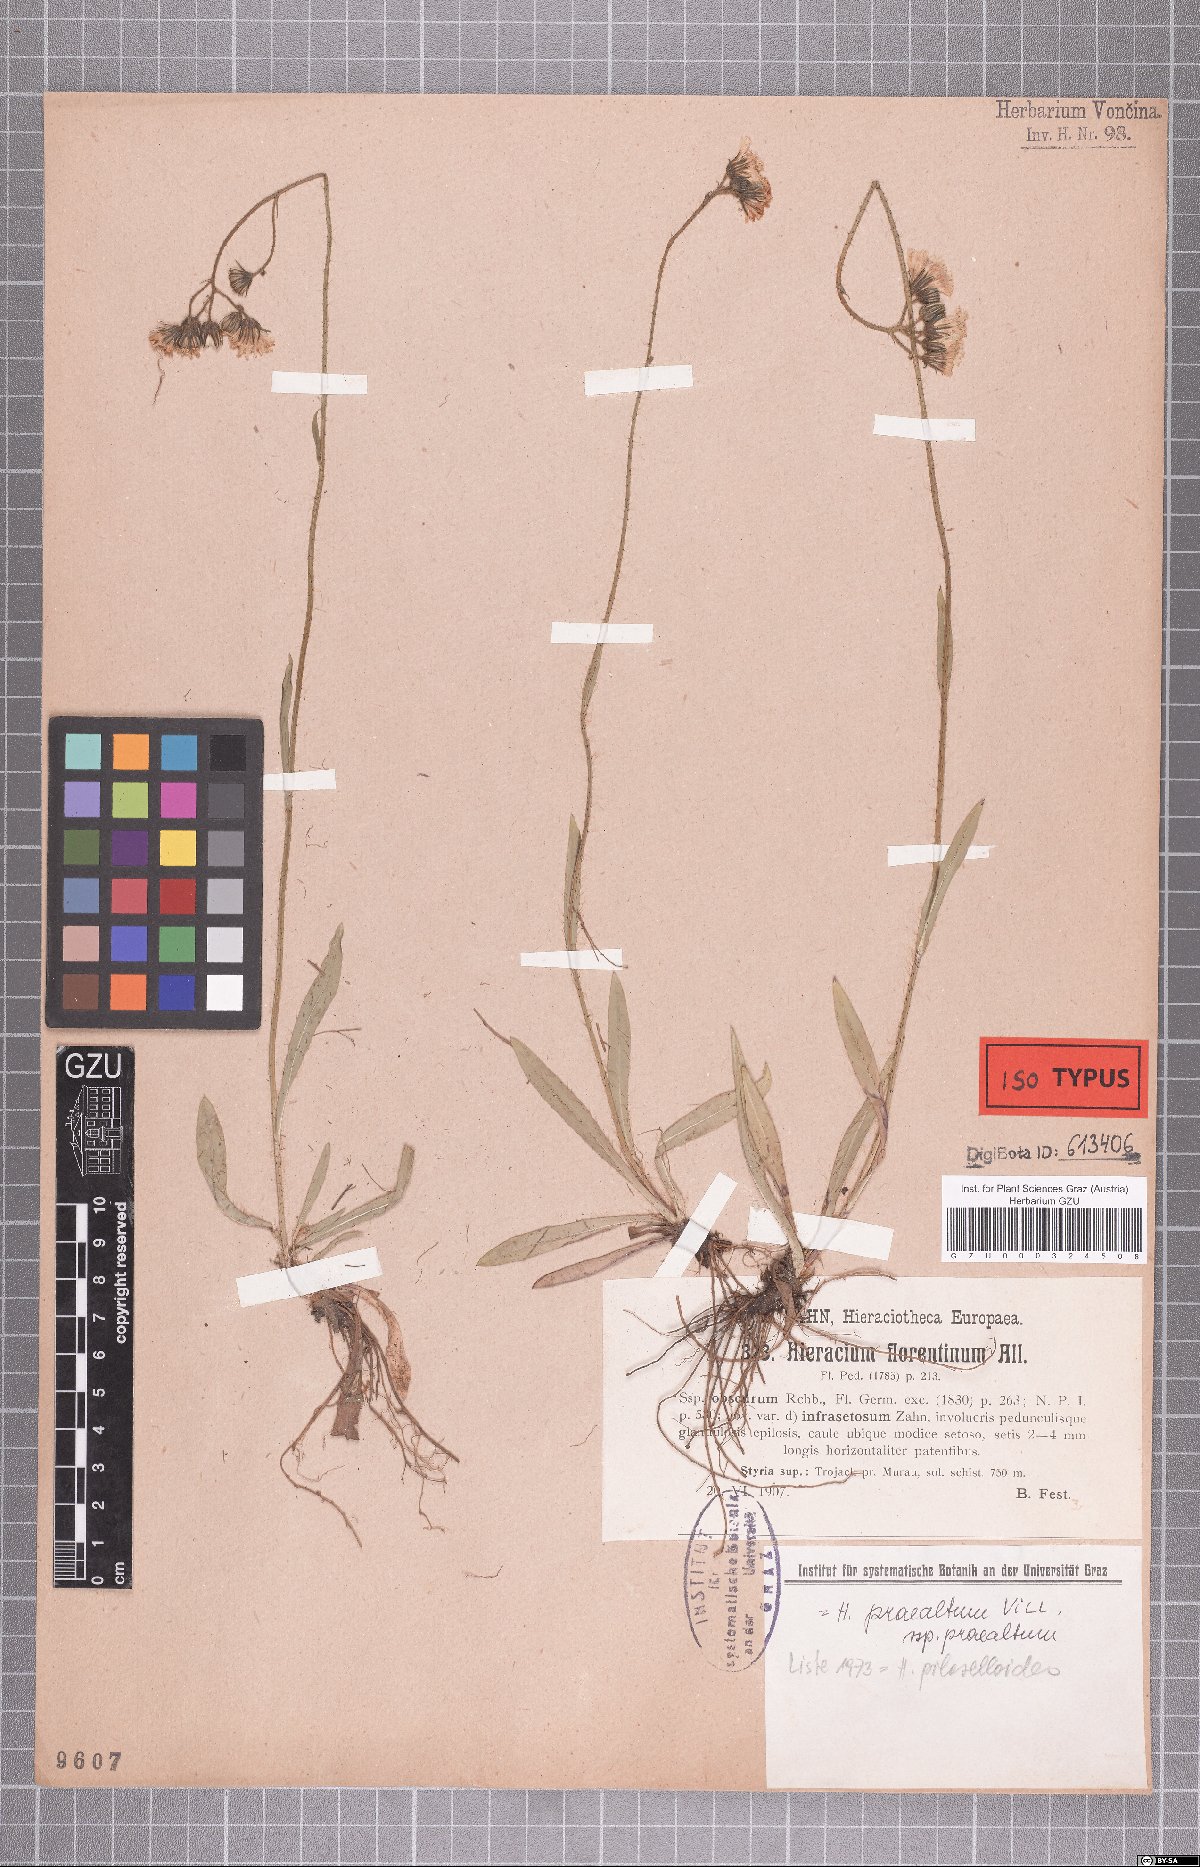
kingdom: Plantae
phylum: Tracheophyta
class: Magnoliopsida
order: Asterales
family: Asteraceae
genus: Hieracium
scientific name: Hieracium florentinum
